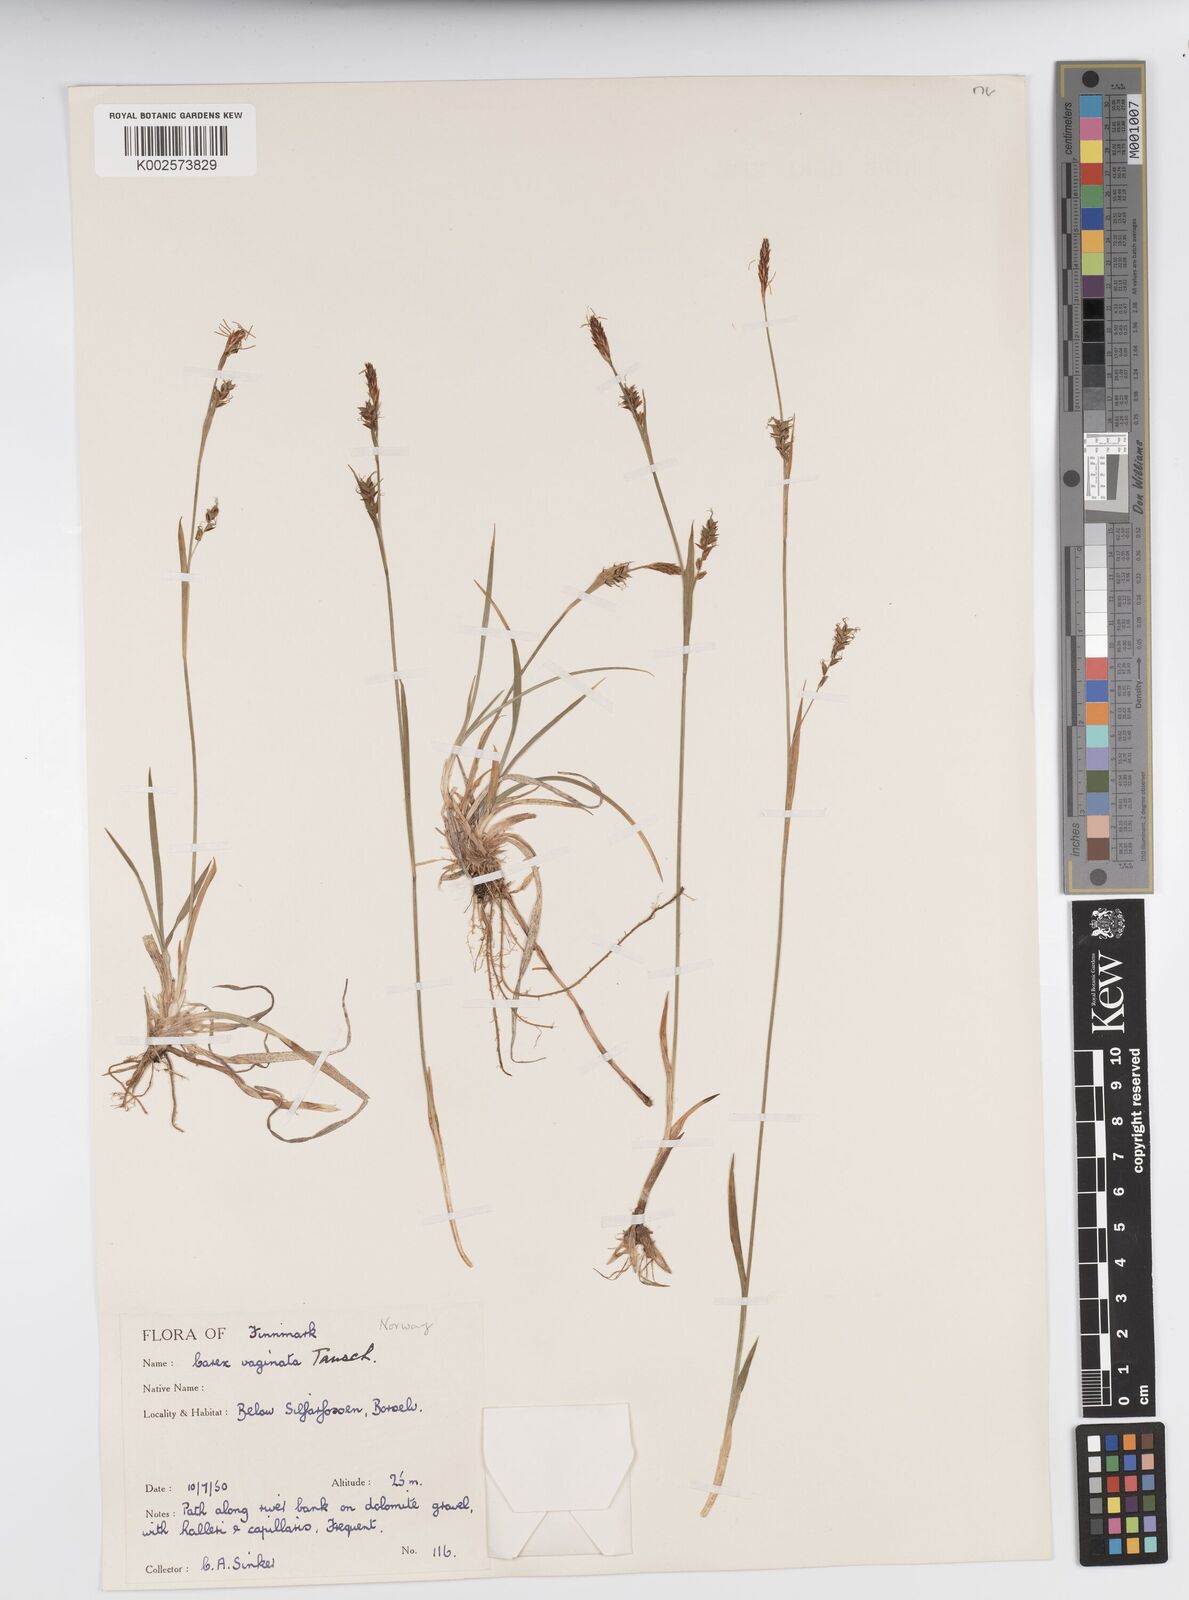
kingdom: Plantae
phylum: Tracheophyta
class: Liliopsida
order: Poales
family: Cyperaceae
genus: Carex
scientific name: Carex vaginata
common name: Sheathed sedge
